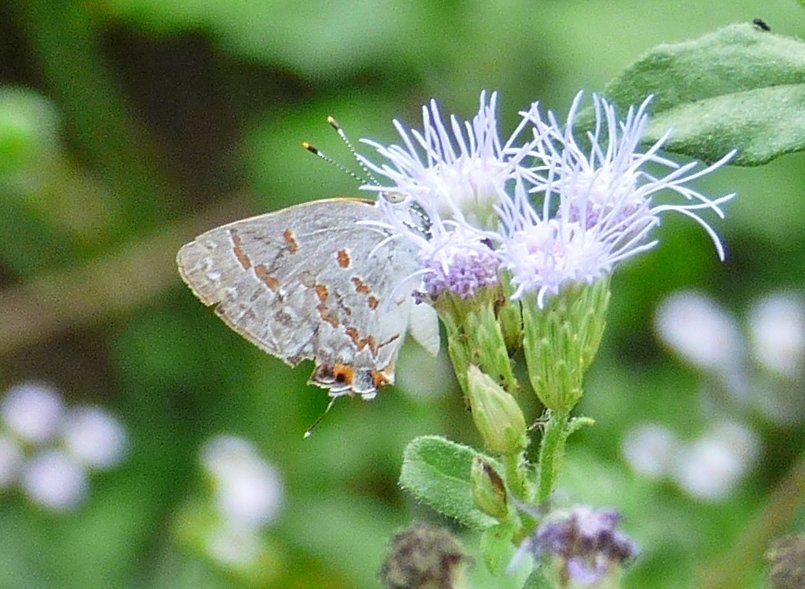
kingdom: Animalia
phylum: Arthropoda
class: Insecta
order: Lepidoptera
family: Lycaenidae
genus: Ministrymon
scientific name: Ministrymon clytie
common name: Clytie Ministreak
